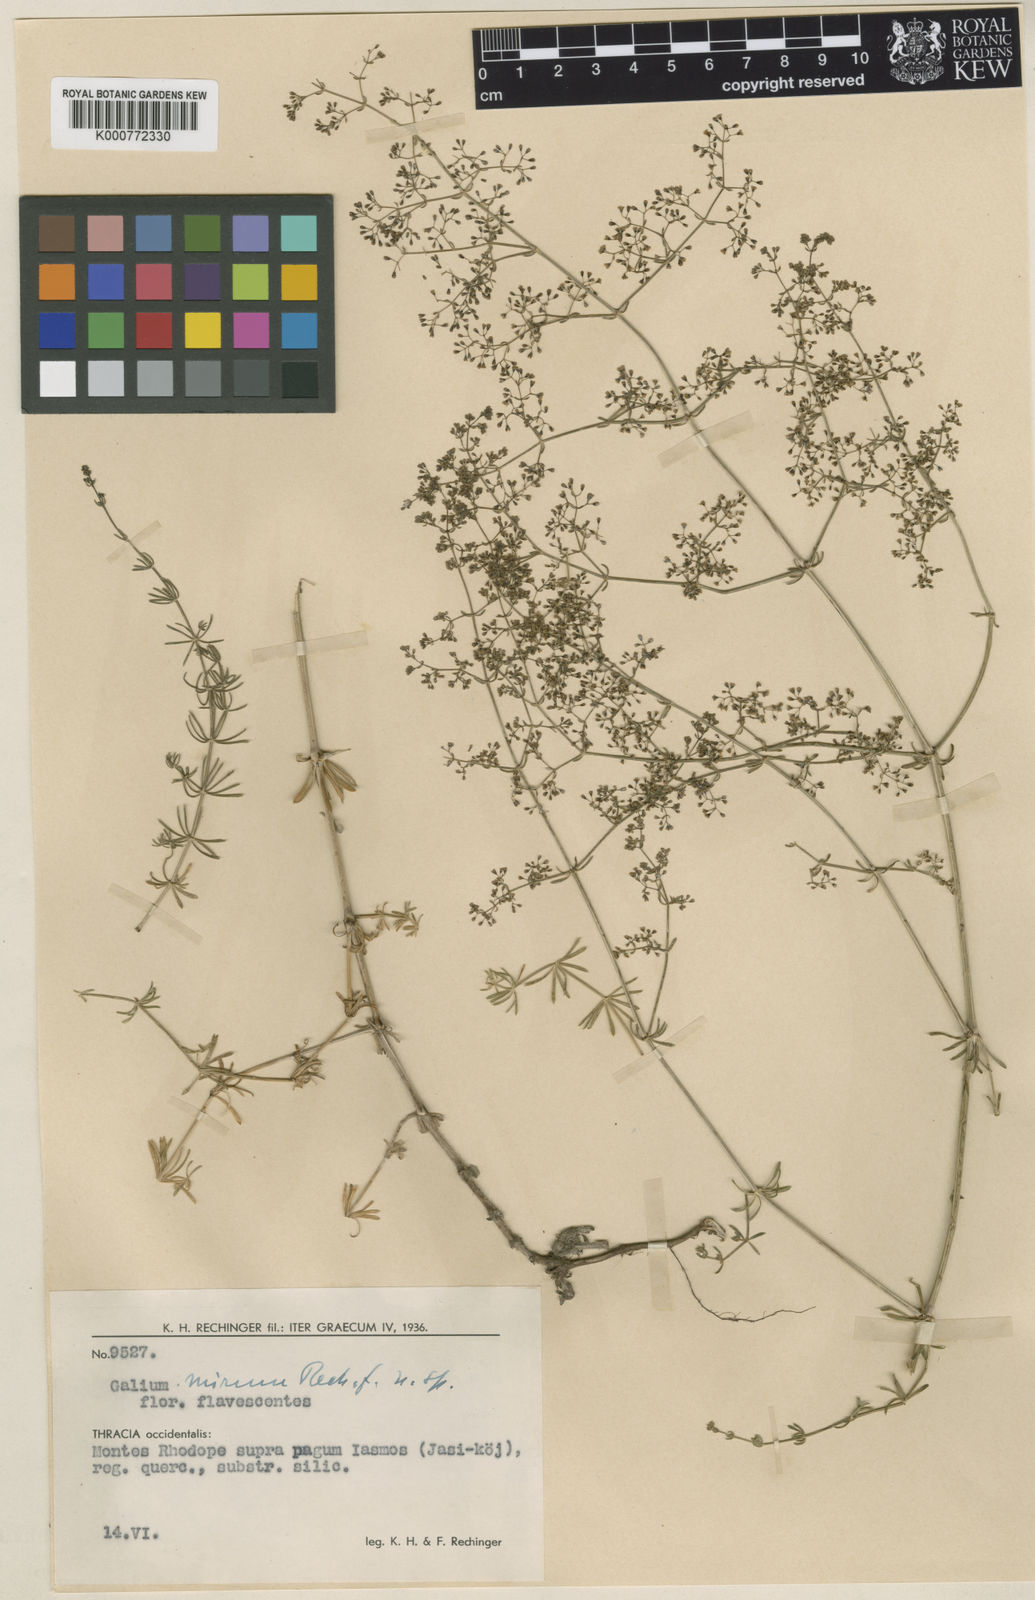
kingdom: Plantae
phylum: Tracheophyta
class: Magnoliopsida
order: Gentianales
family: Rubiaceae
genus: Galium
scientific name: Galium mirum
